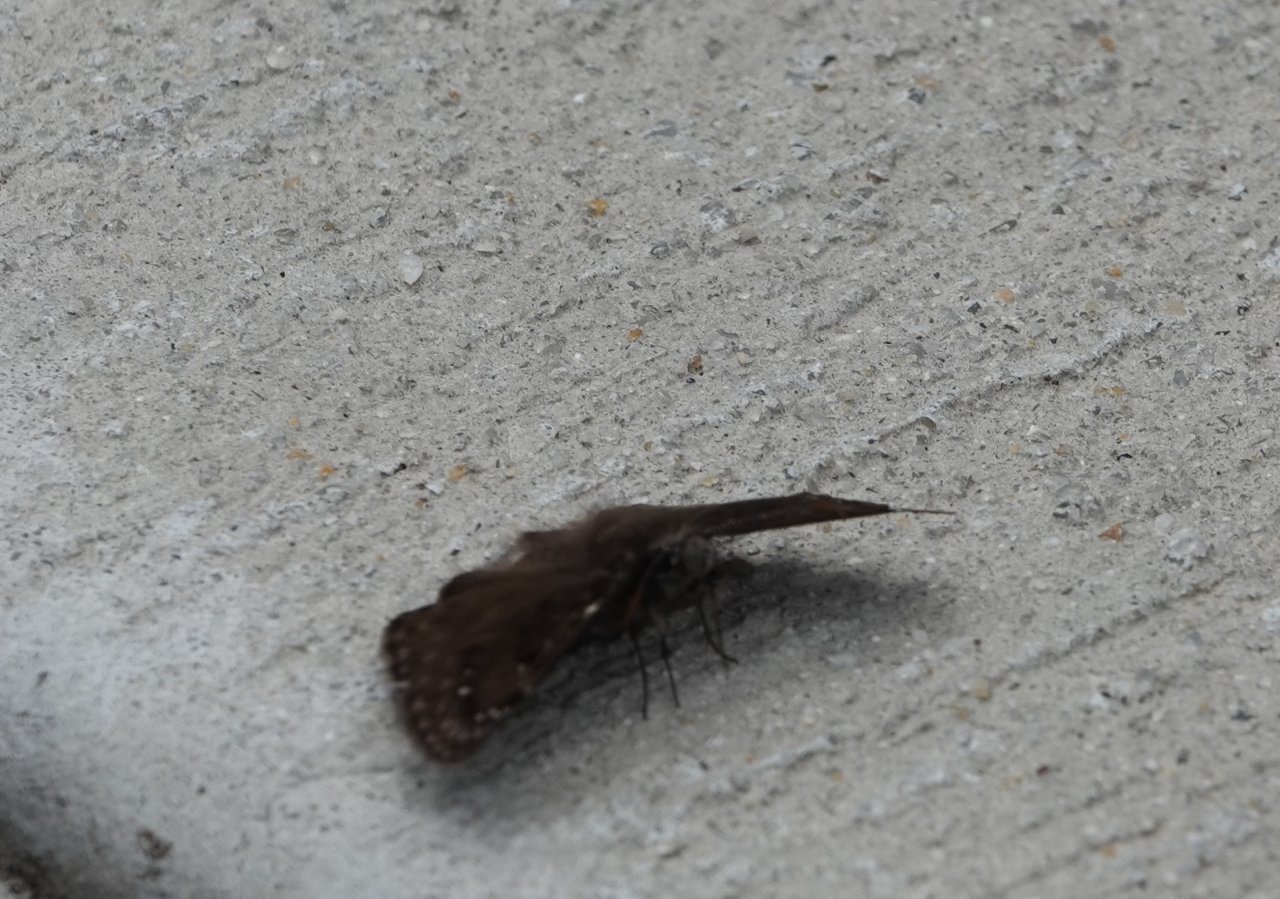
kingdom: Animalia
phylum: Arthropoda
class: Insecta
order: Lepidoptera
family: Hesperiidae
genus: Gesta
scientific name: Gesta
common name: Horace's Duskywing
